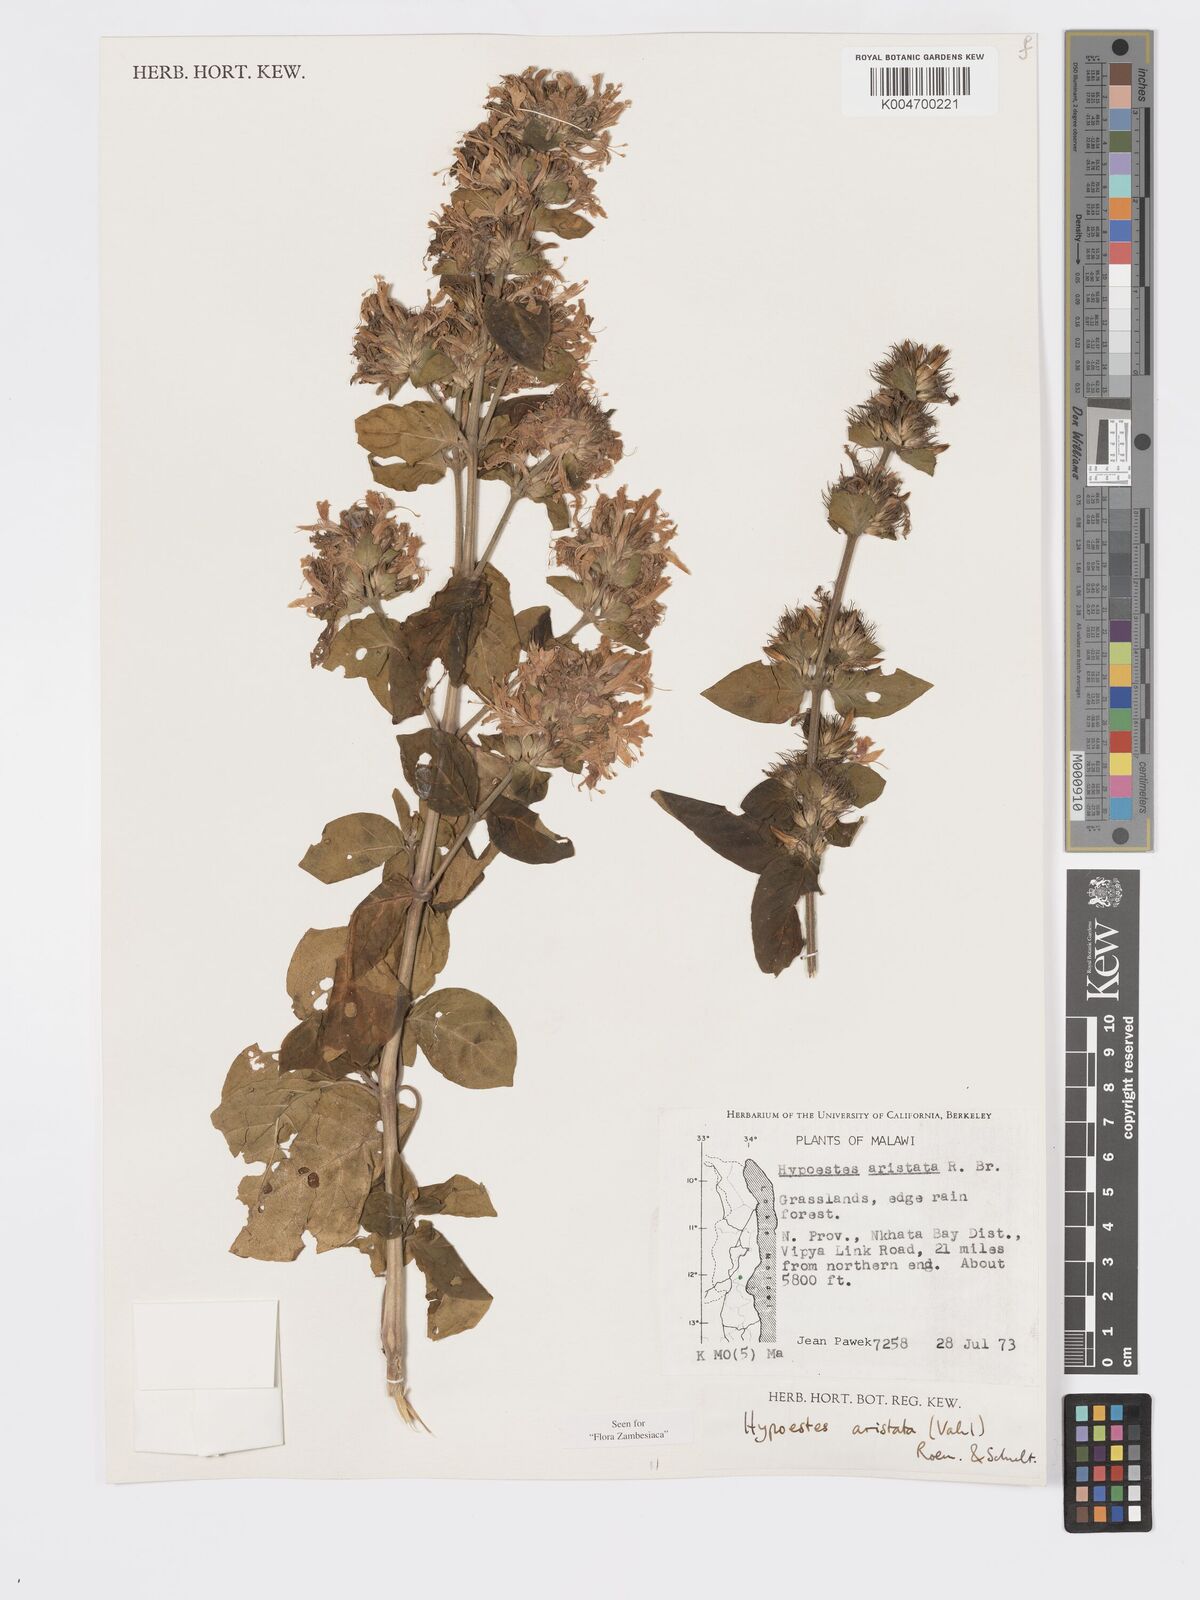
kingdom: Plantae
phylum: Tracheophyta
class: Magnoliopsida
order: Lamiales
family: Acanthaceae
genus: Hypoestes
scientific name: Hypoestes aristata
